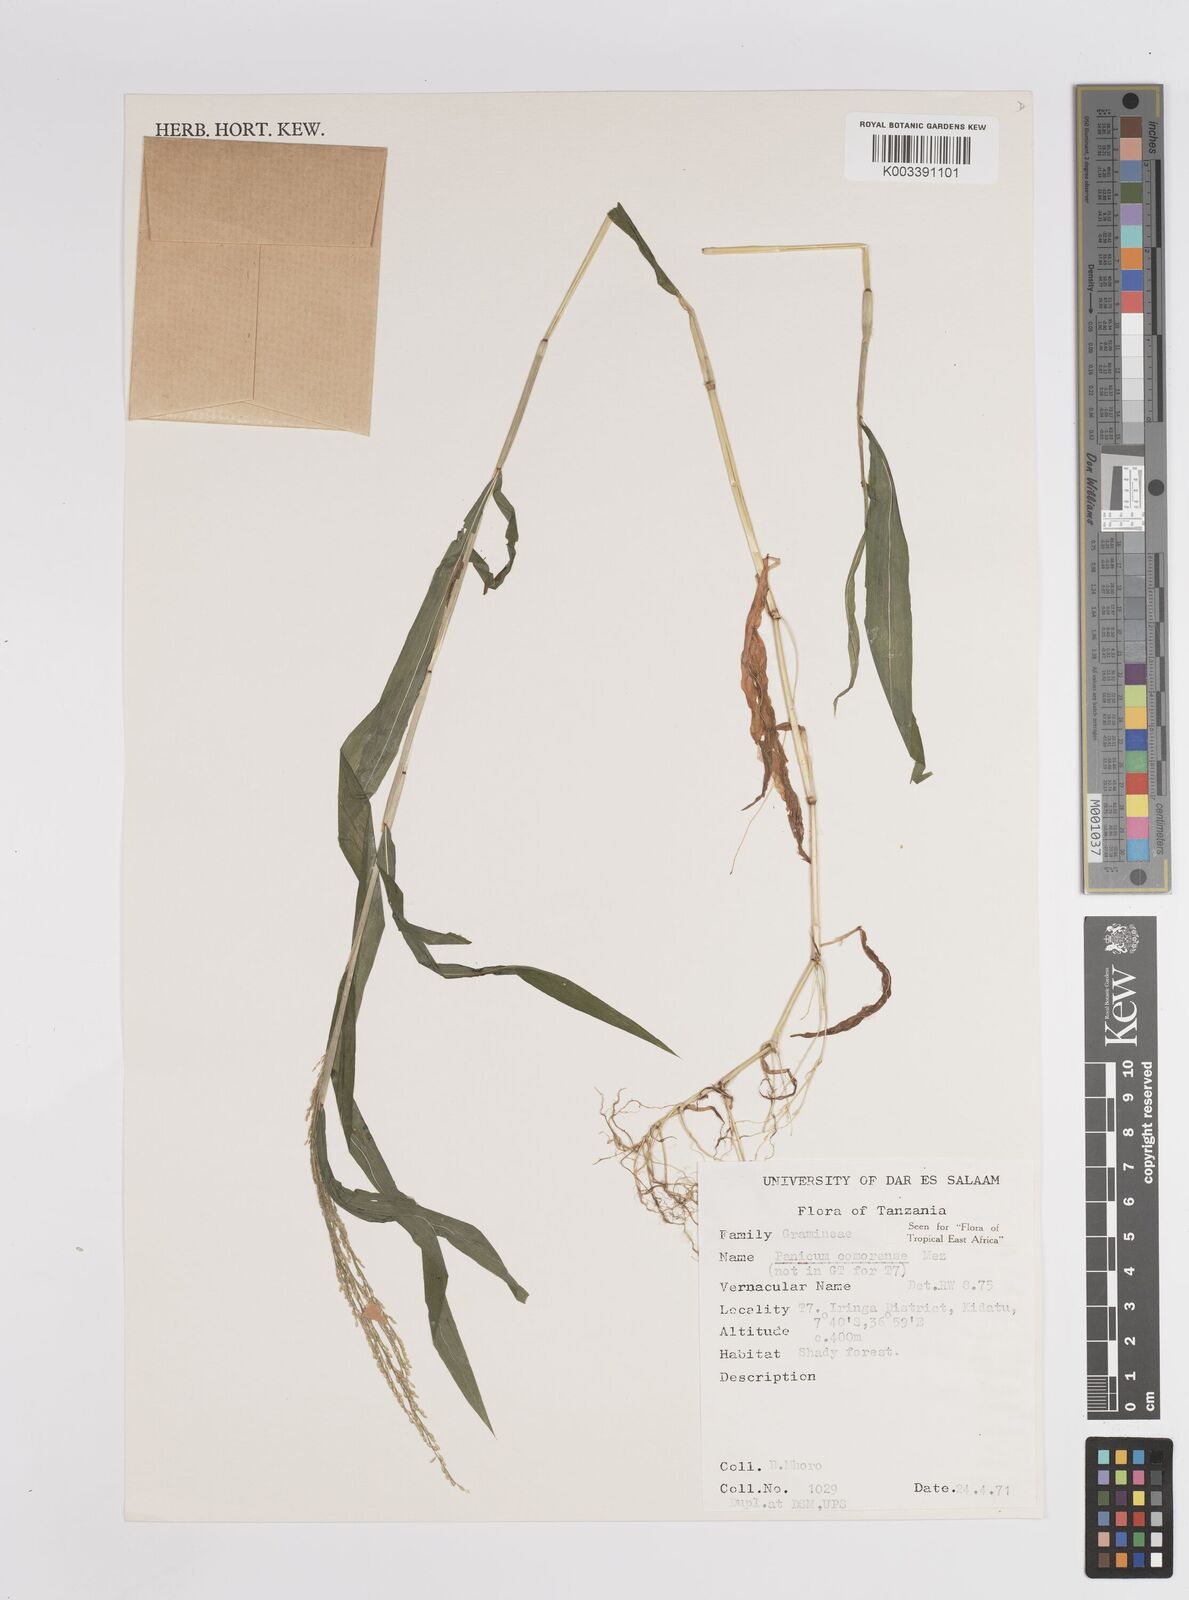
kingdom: Plantae
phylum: Tracheophyta
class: Liliopsida
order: Poales
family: Poaceae
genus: Panicum
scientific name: Panicum comorense
